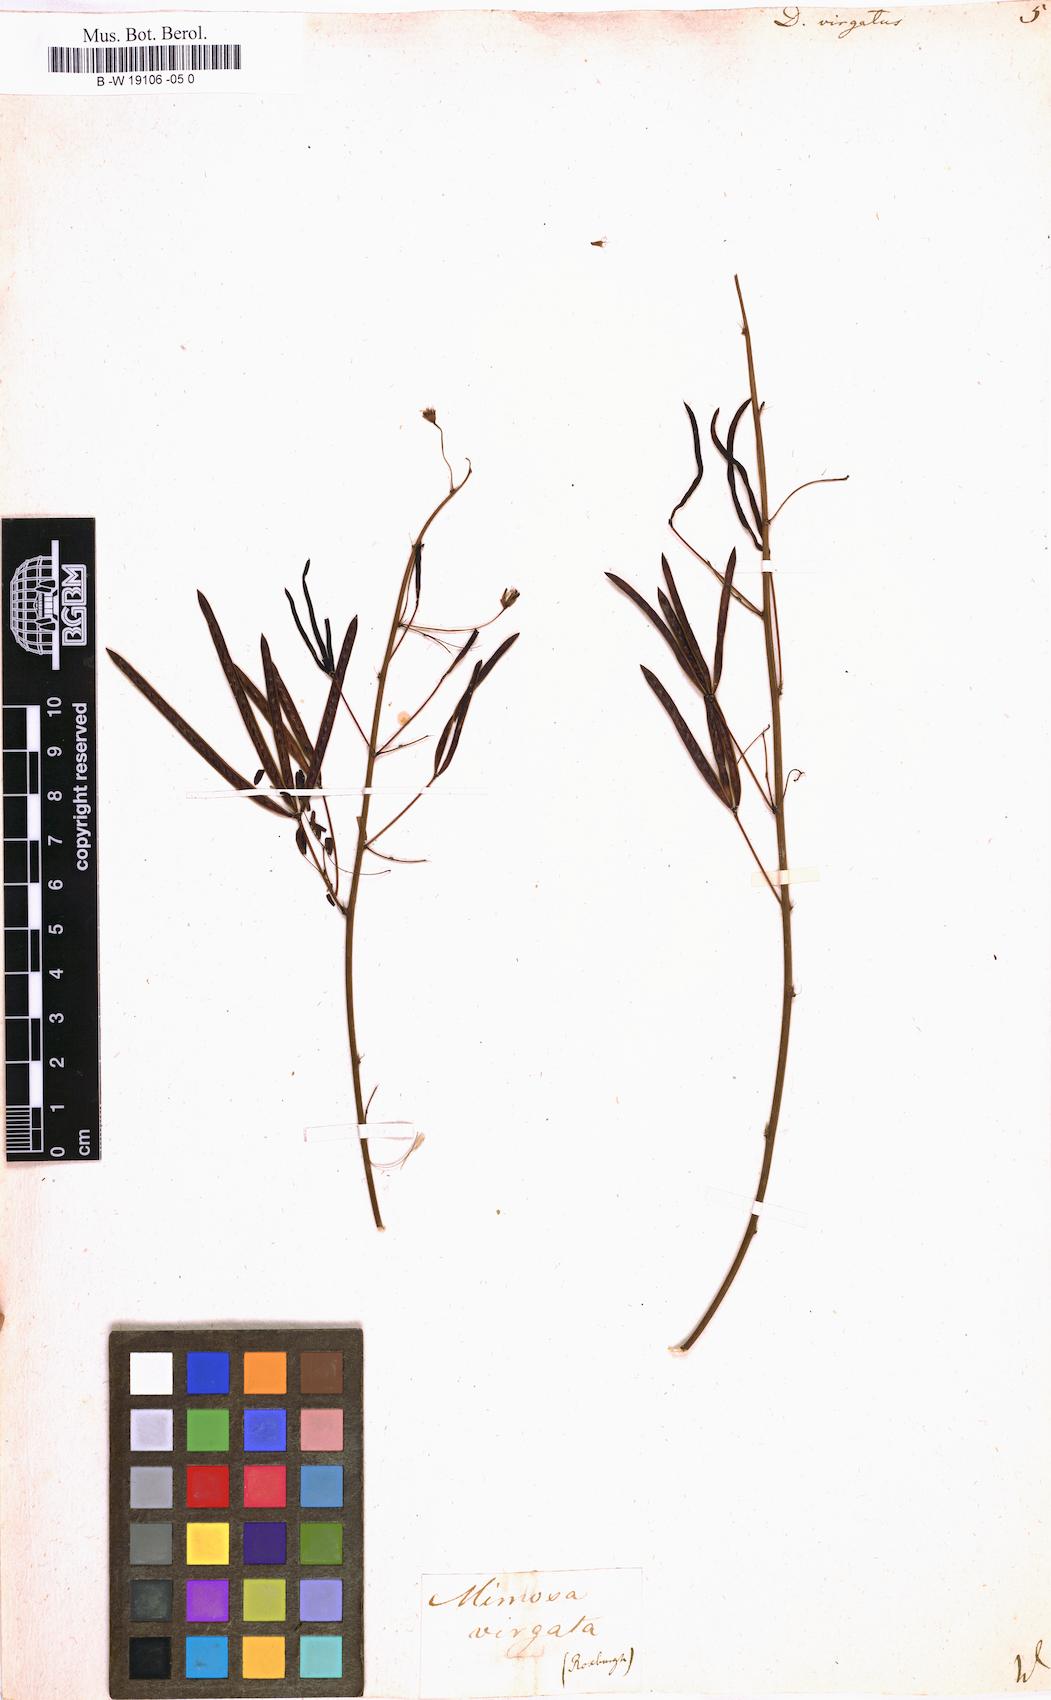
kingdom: Plantae
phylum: Tracheophyta
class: Magnoliopsida
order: Fabales
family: Fabaceae
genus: Desmanthus
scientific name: Desmanthus virgatus
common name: Wild tantan
